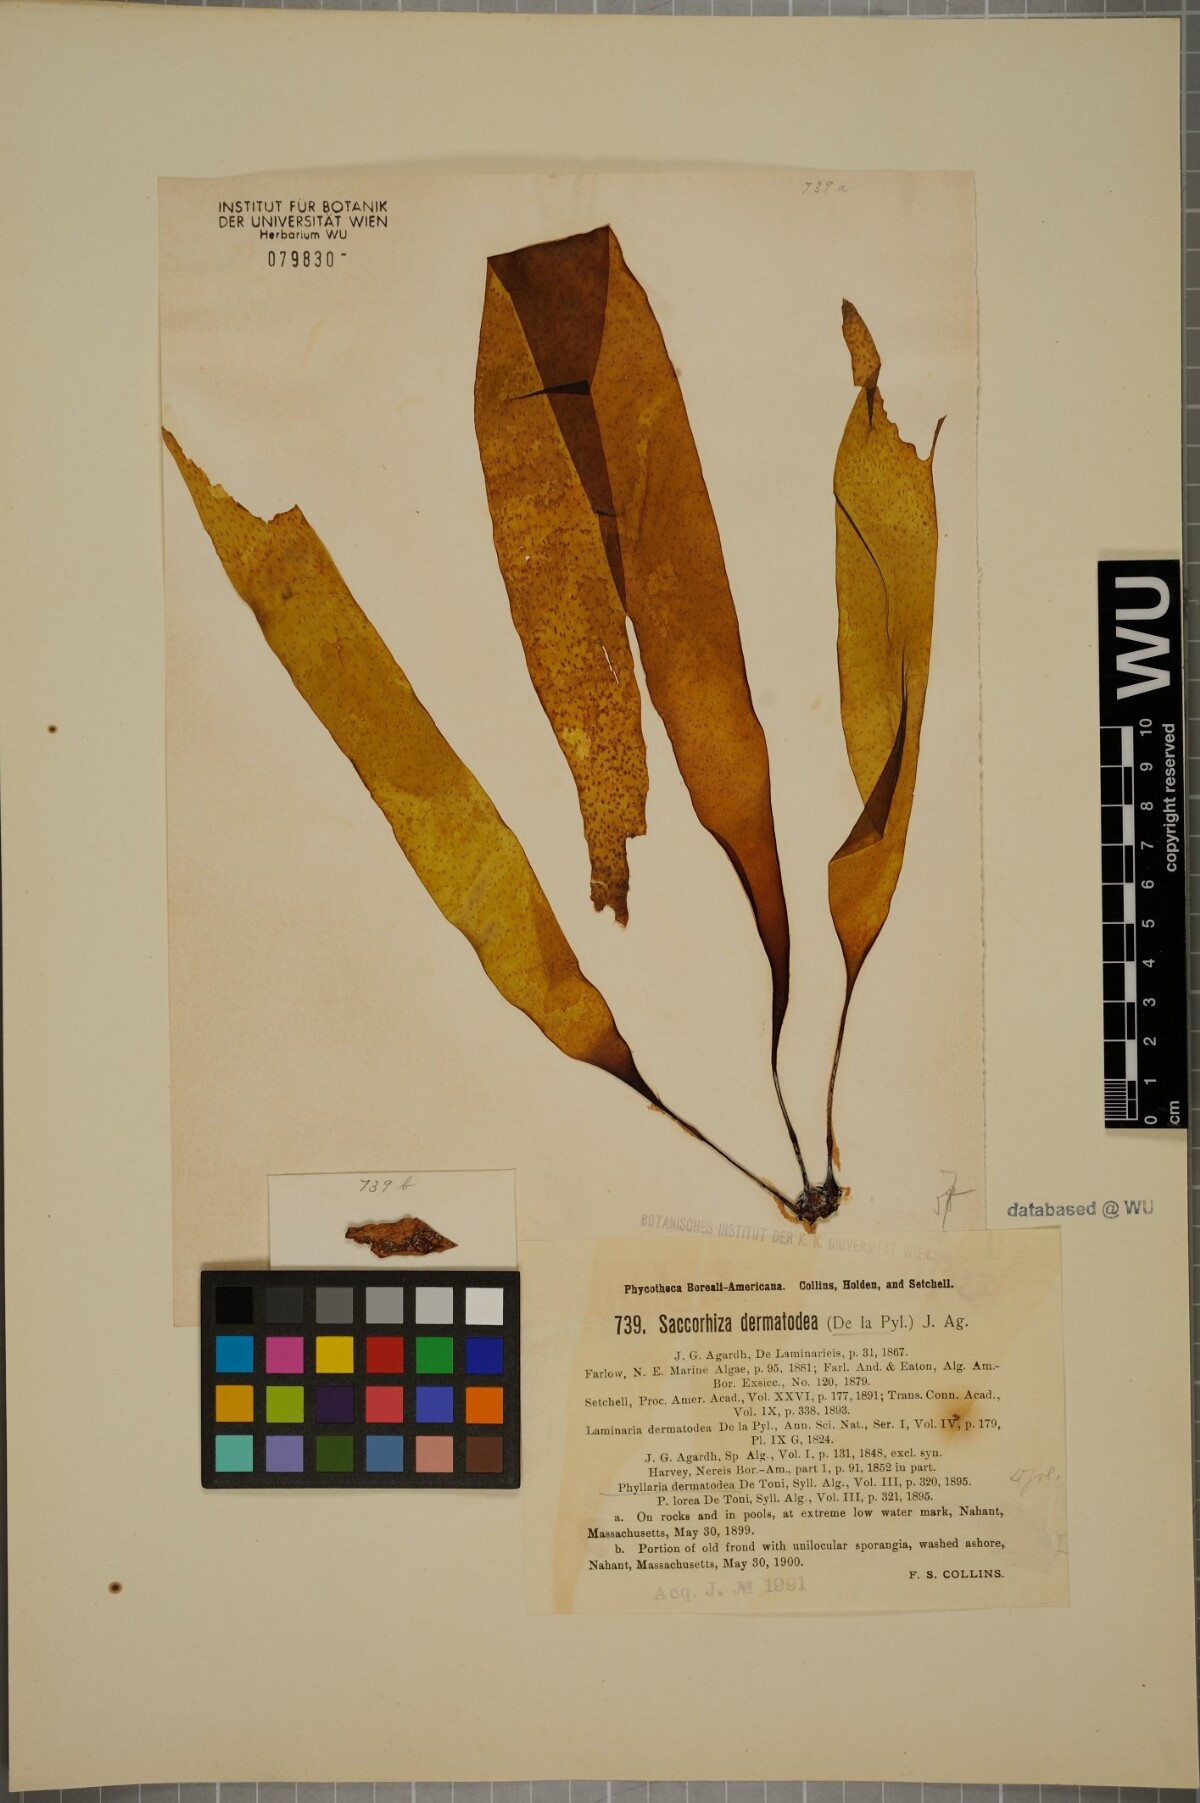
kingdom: Chromista
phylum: Ochrophyta
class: Phaeophyceae
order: Tilopteridales
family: Phyllariaceae
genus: Saccorhiza
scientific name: Saccorhiza dermatodea
